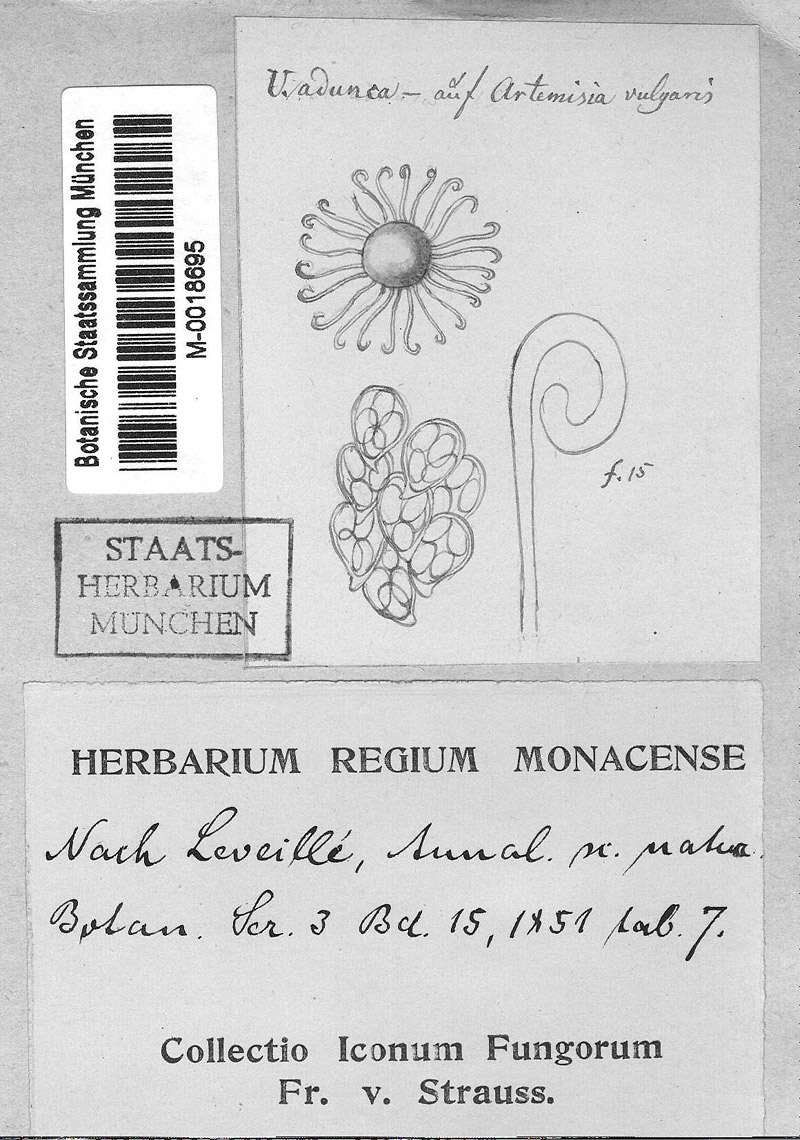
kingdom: Plantae
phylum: Tracheophyta
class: Magnoliopsida
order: Asterales
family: Asteraceae
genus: Artemisia
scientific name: Artemisia vulgaris
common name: Mugwort
